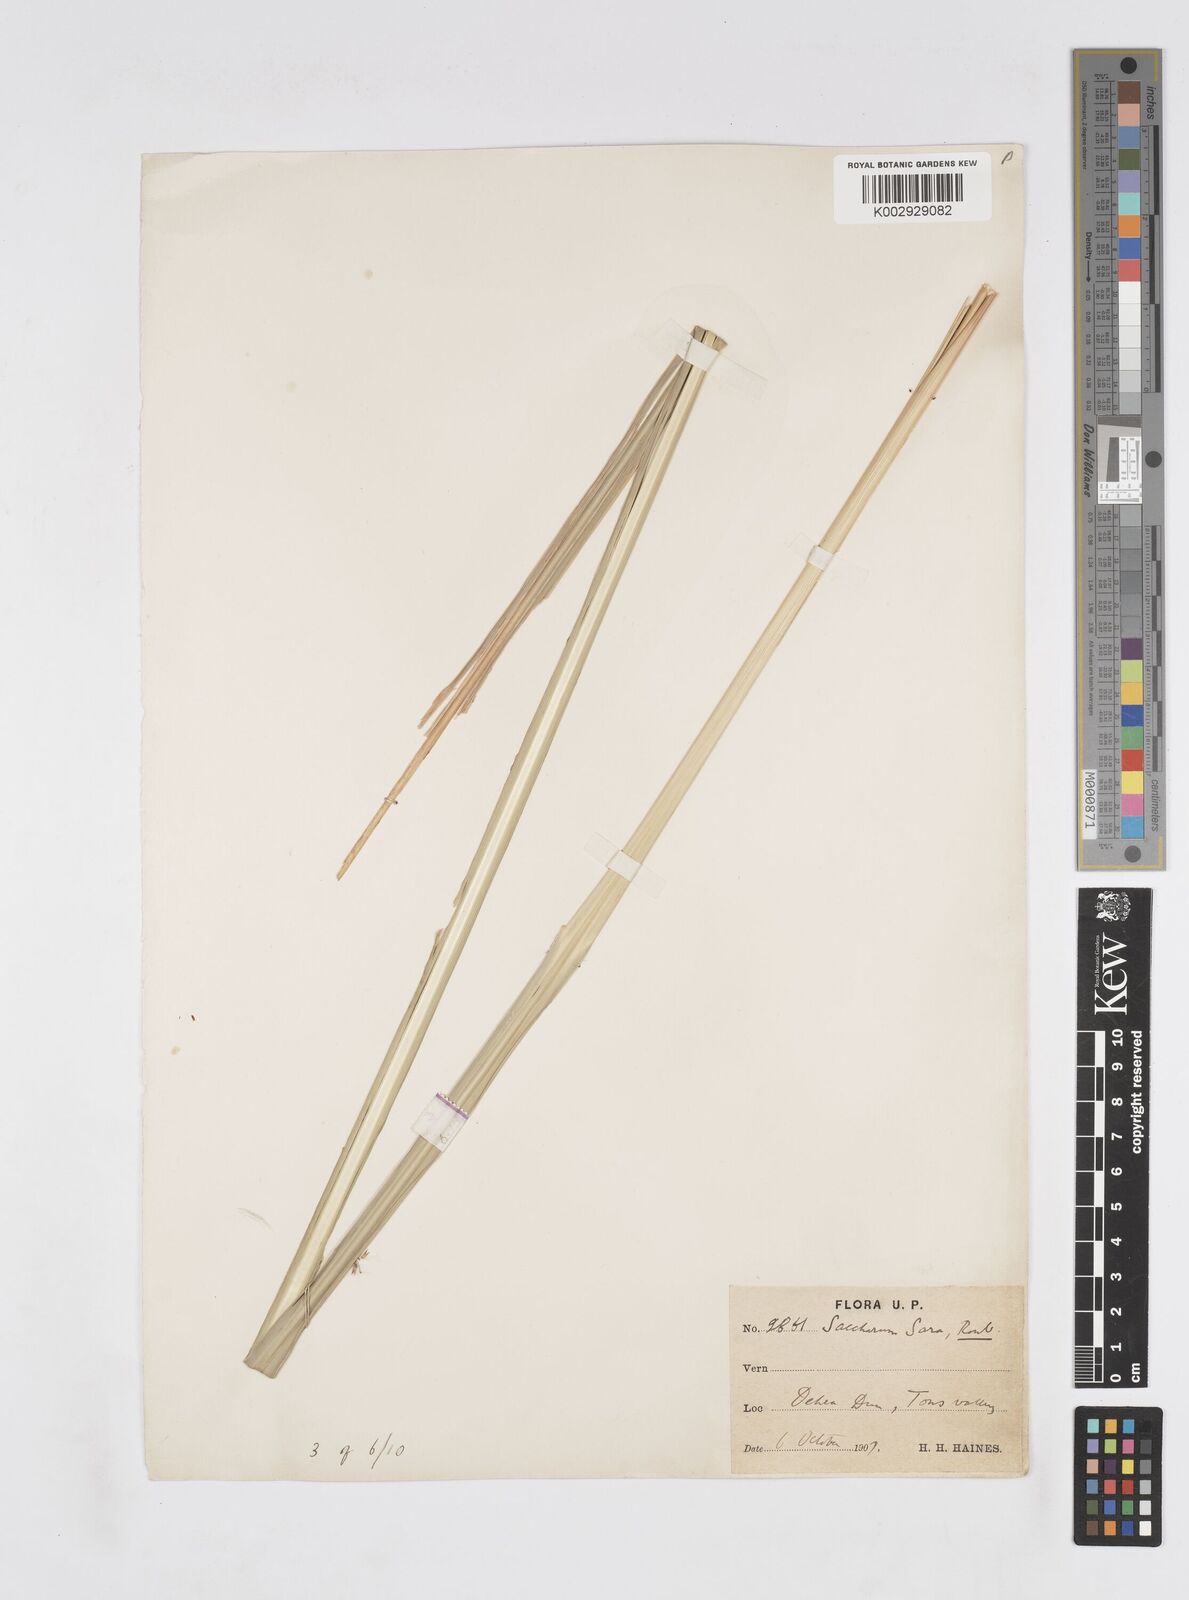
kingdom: Plantae
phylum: Tracheophyta
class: Liliopsida
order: Poales
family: Poaceae
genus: Tripidium
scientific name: Tripidium bengalense
